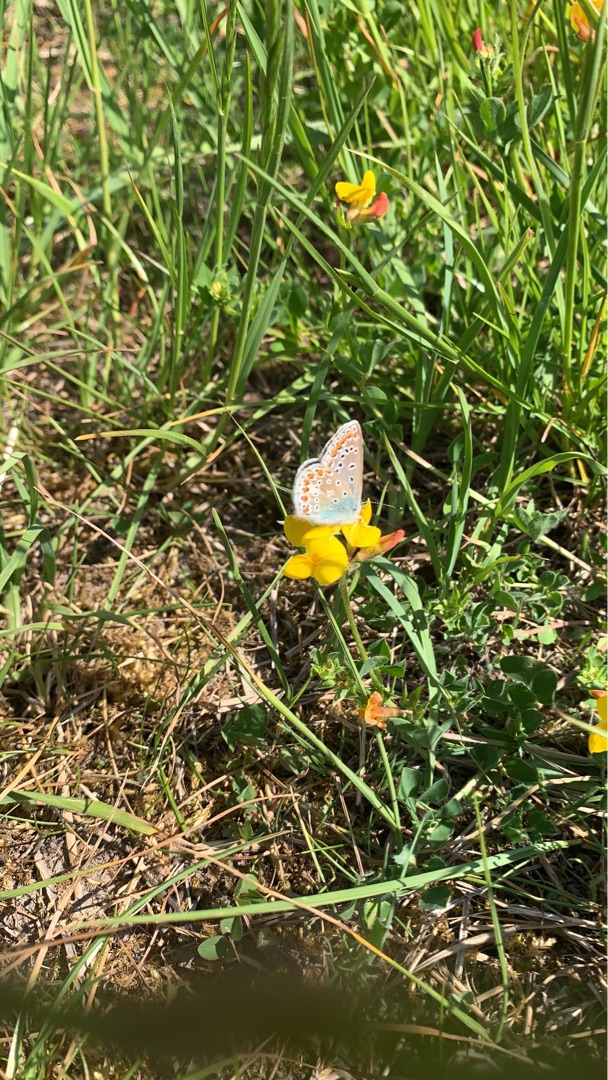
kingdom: Animalia
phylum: Arthropoda
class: Insecta
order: Lepidoptera
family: Lycaenidae
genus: Polyommatus
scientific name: Polyommatus icarus
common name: Almindelig blåfugl
